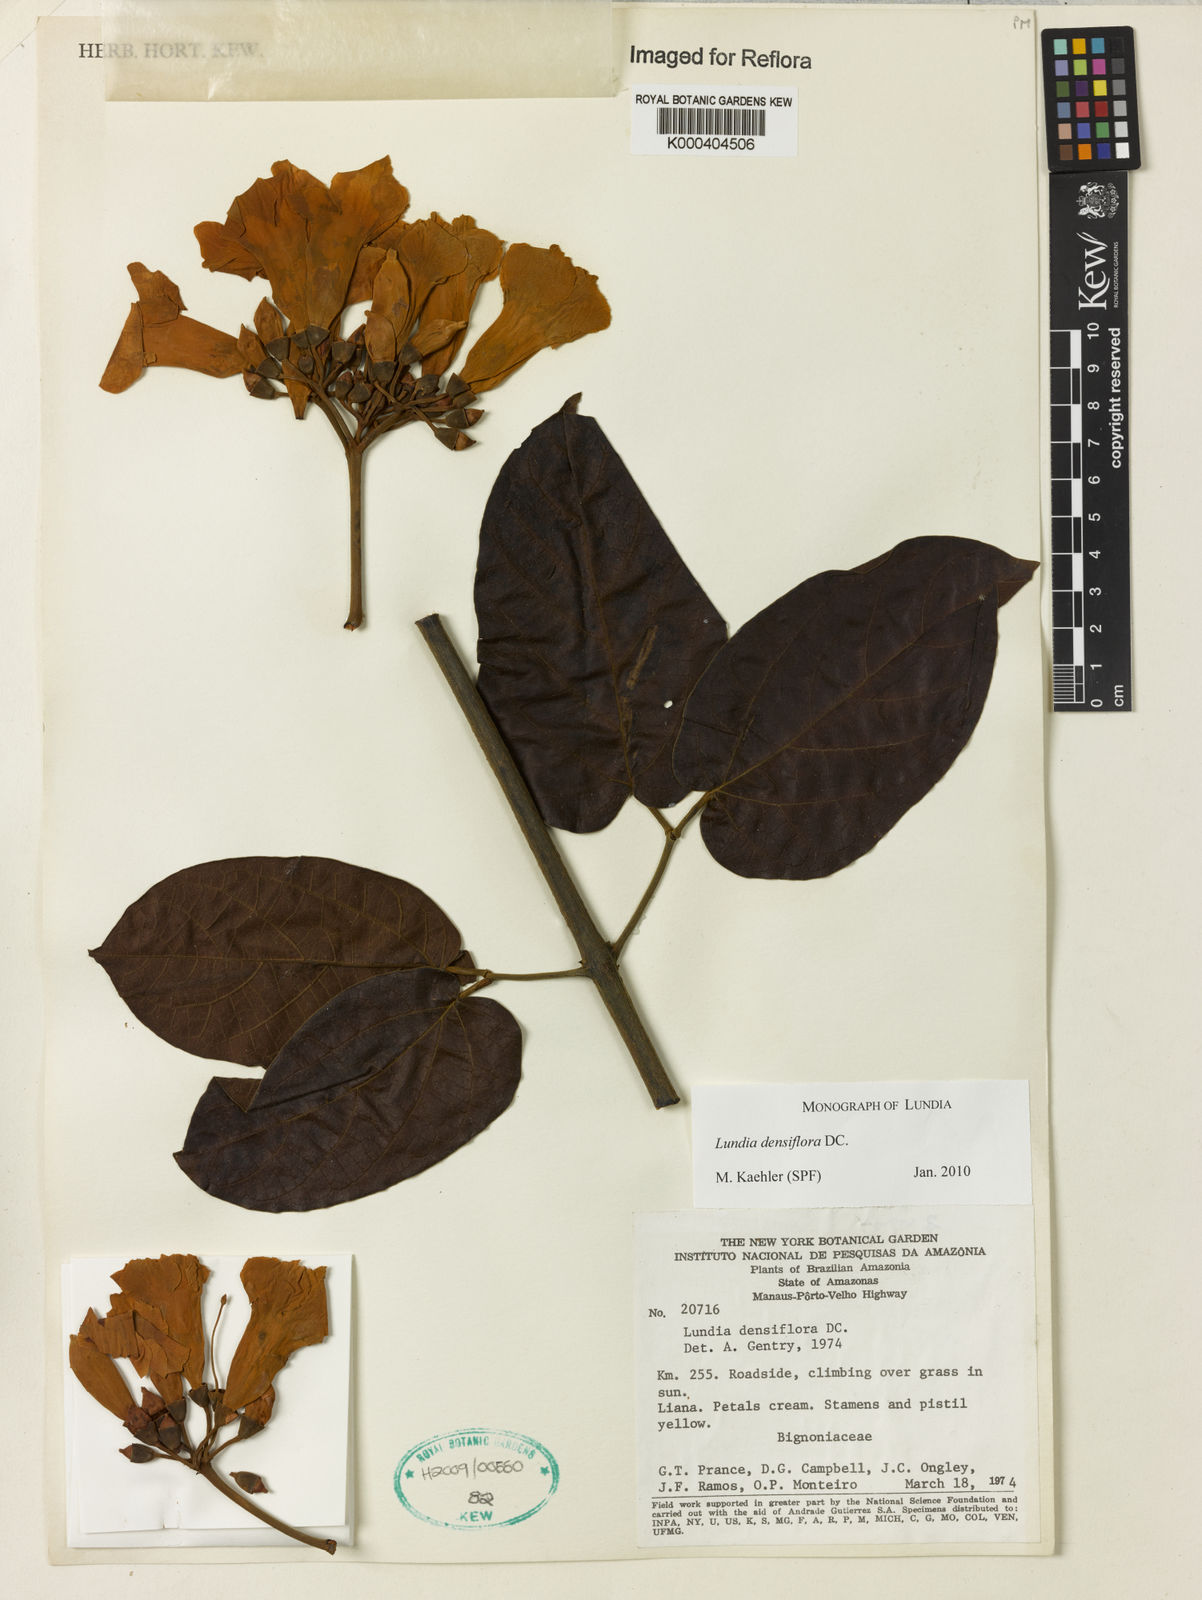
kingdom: Plantae
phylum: Tracheophyta
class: Magnoliopsida
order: Lamiales
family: Bignoniaceae
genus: Lundia
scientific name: Lundia densiflora
